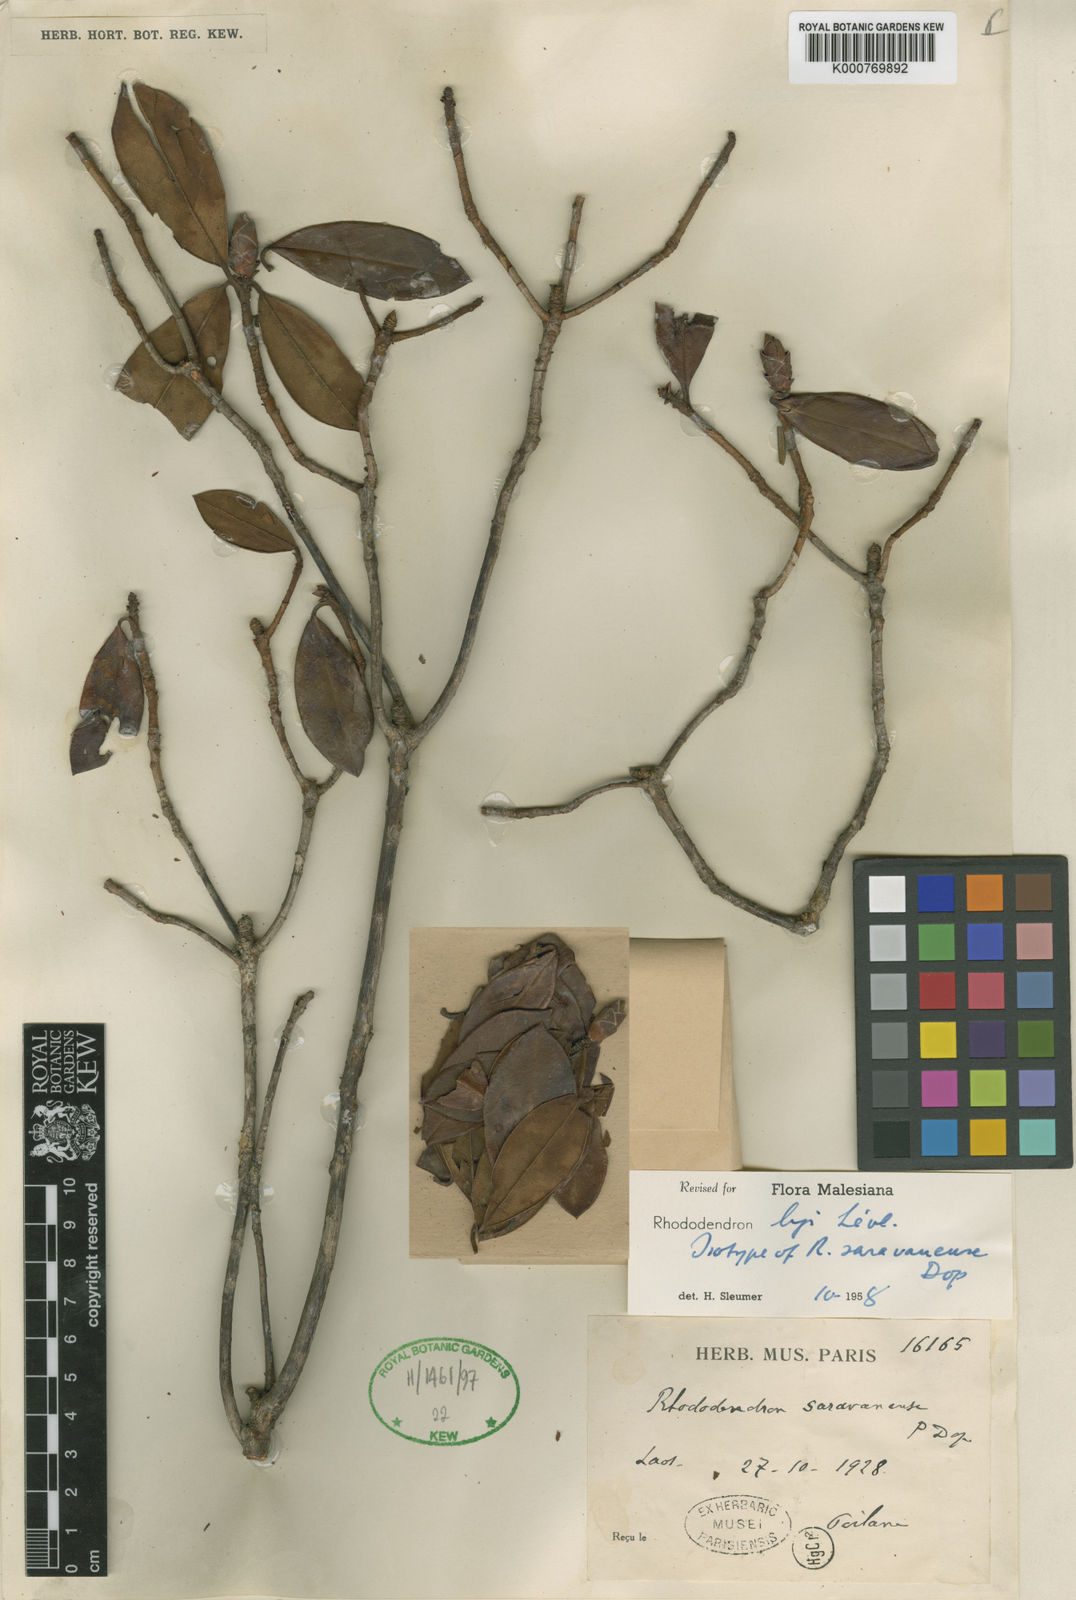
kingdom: Plantae
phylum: Tracheophyta
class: Magnoliopsida
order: Ericales
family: Ericaceae
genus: Rhododendron
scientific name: Rhododendron
